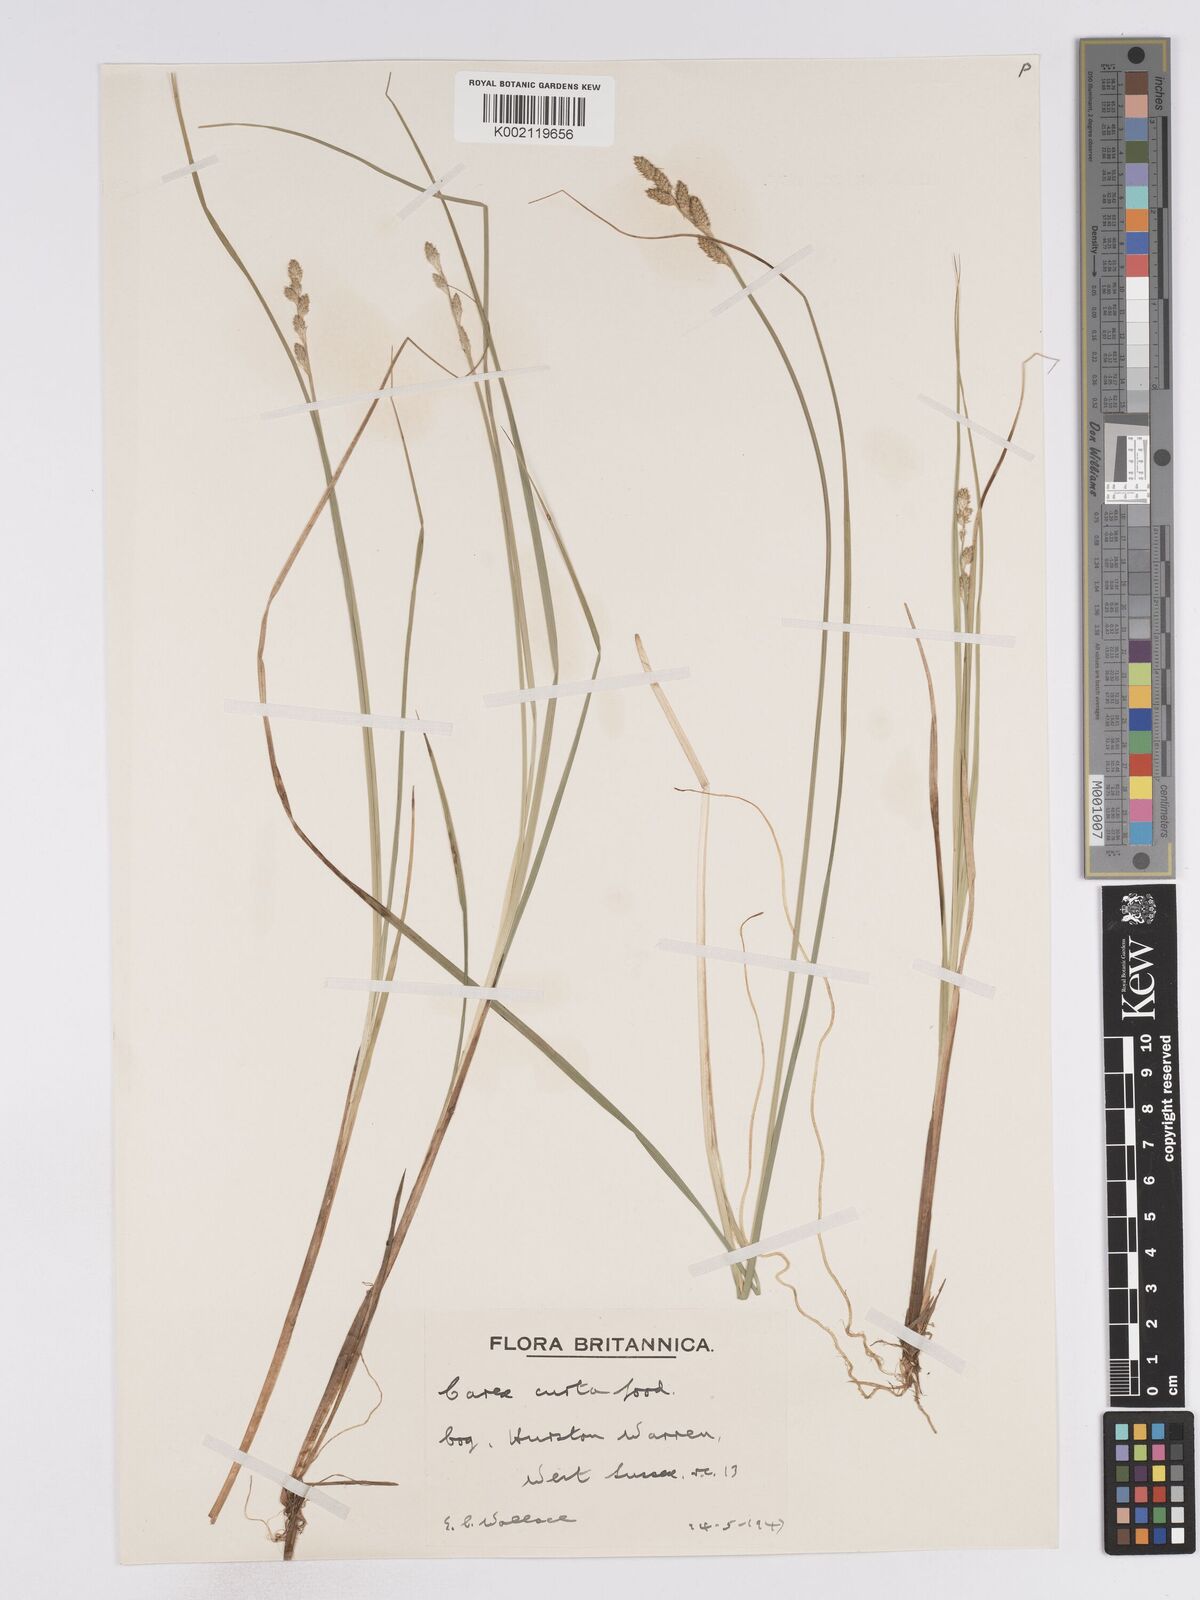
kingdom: Plantae
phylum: Tracheophyta
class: Liliopsida
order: Poales
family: Cyperaceae
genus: Carex
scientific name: Carex curta
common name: White sedge
